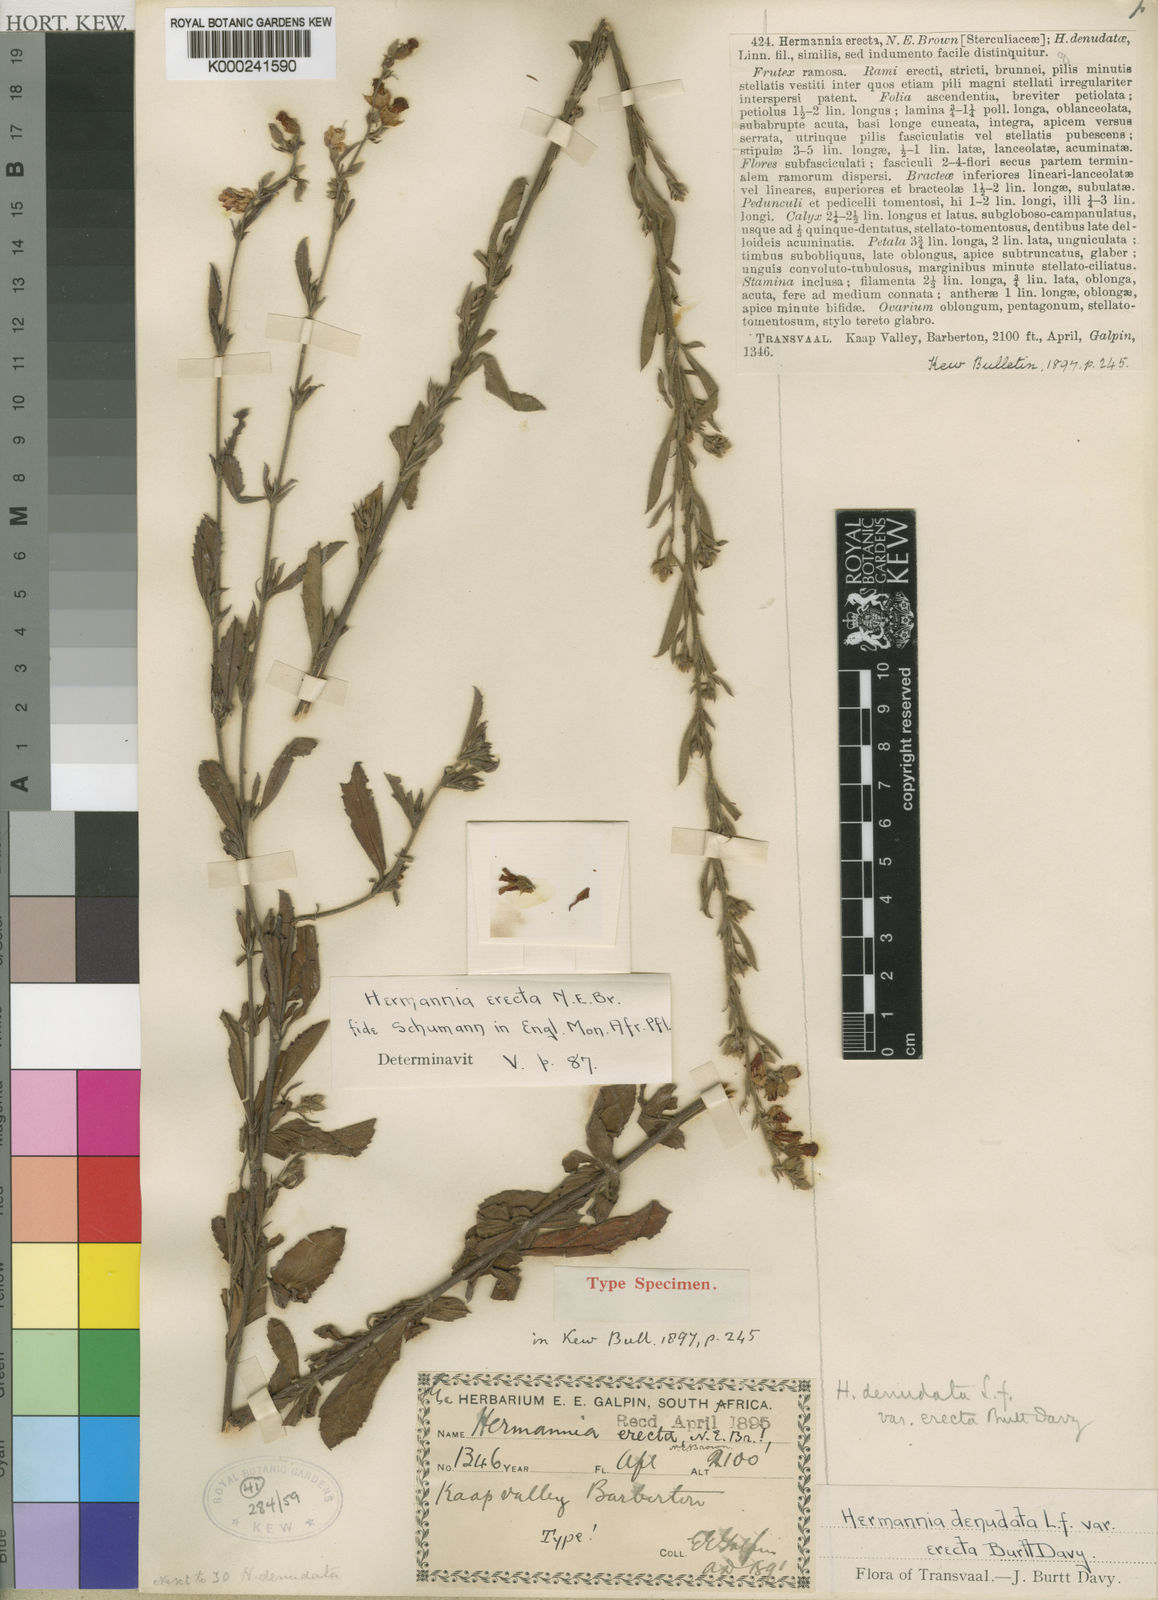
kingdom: Plantae
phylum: Tracheophyta
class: Magnoliopsida
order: Malvales
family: Malvaceae
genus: Hermannia
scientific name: Hermannia
